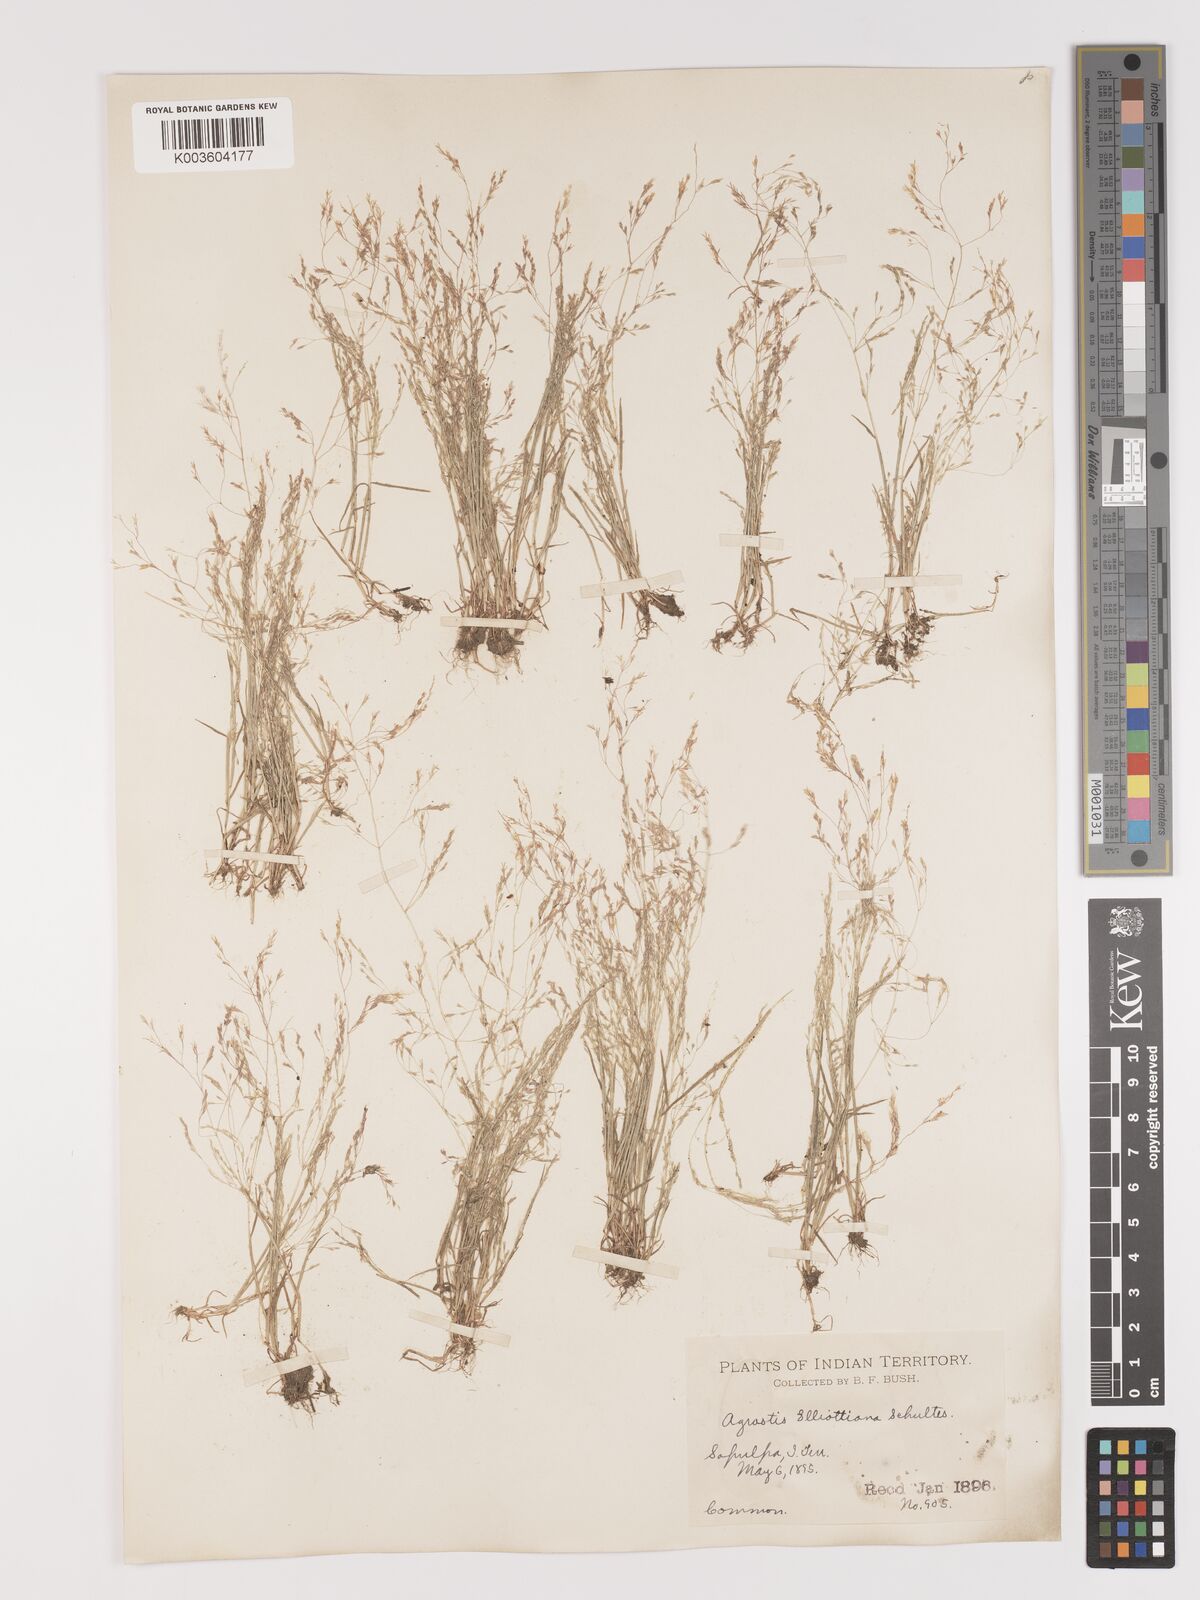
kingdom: Plantae
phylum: Tracheophyta
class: Liliopsida
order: Poales
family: Poaceae
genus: Agrostis
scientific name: Agrostis elliottiana
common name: Elliott's bent
